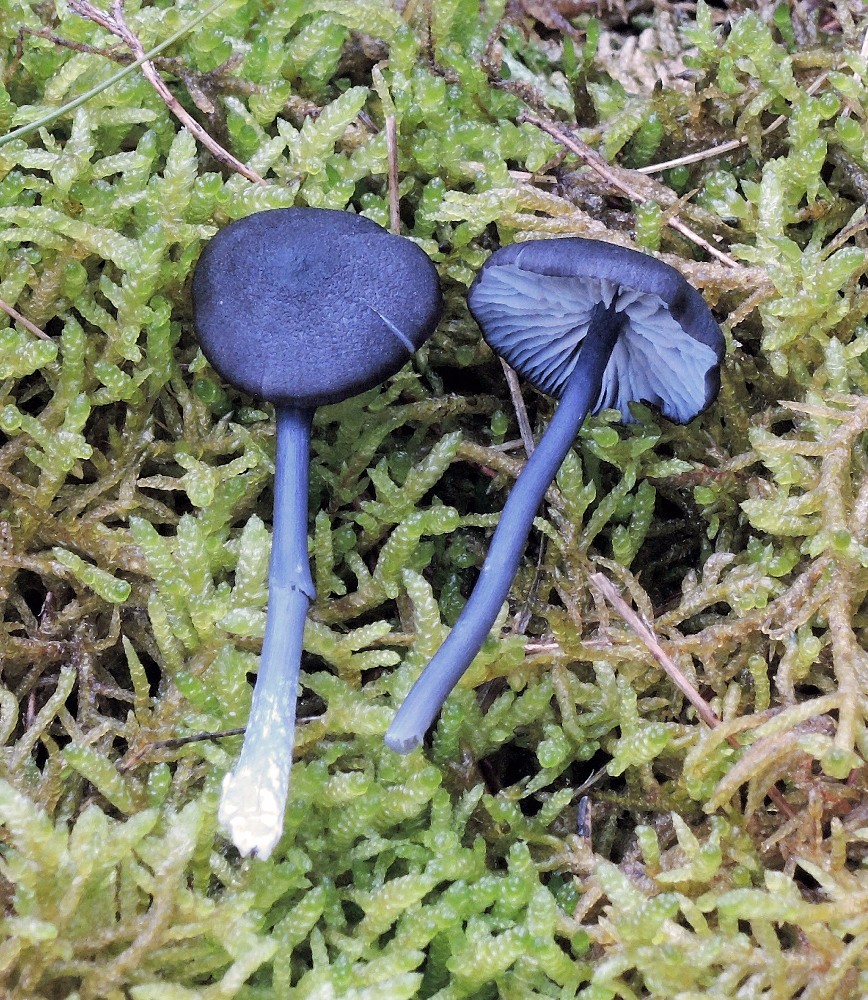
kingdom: Fungi
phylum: Basidiomycota
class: Agaricomycetes
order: Agaricales
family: Entolomataceae
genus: Entoloma
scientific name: Entoloma chalybeum
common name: blåbladet rødblad
